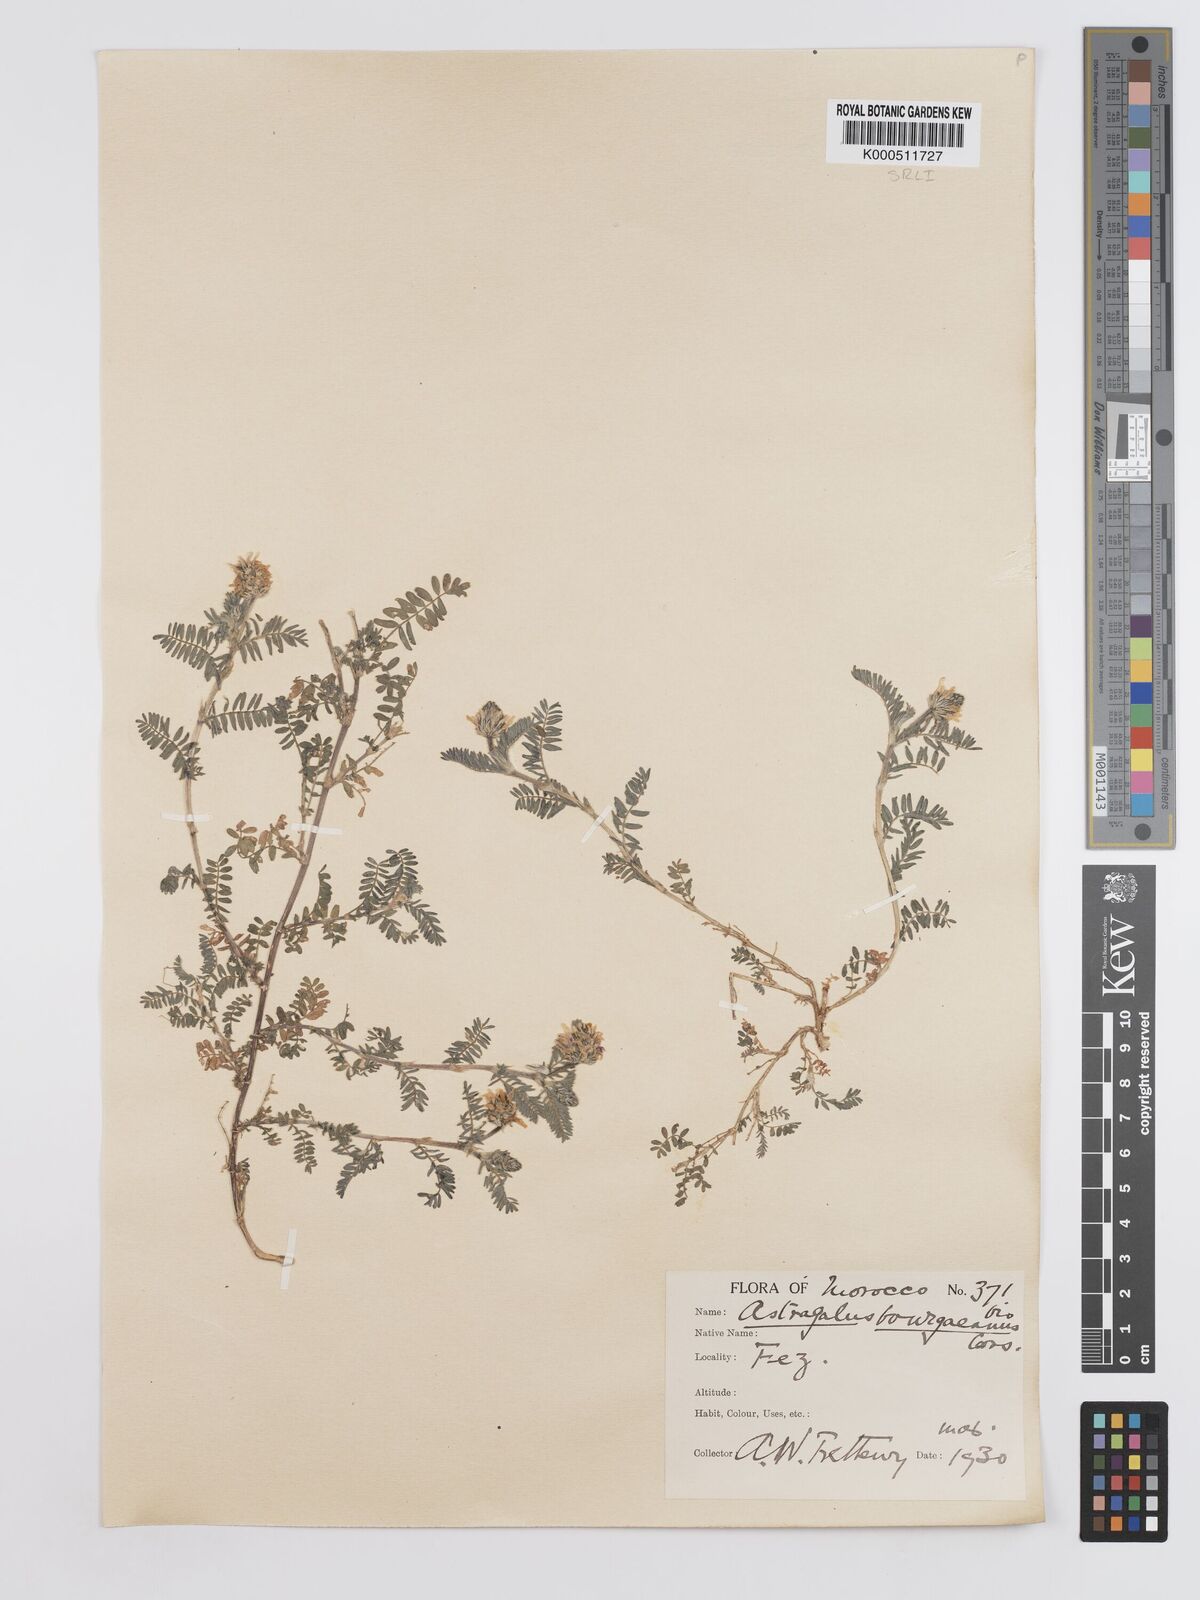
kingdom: Plantae
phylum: Tracheophyta
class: Magnoliopsida
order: Fabales
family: Fabaceae
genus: Astragalus
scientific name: Astragalus bourgaeanus
